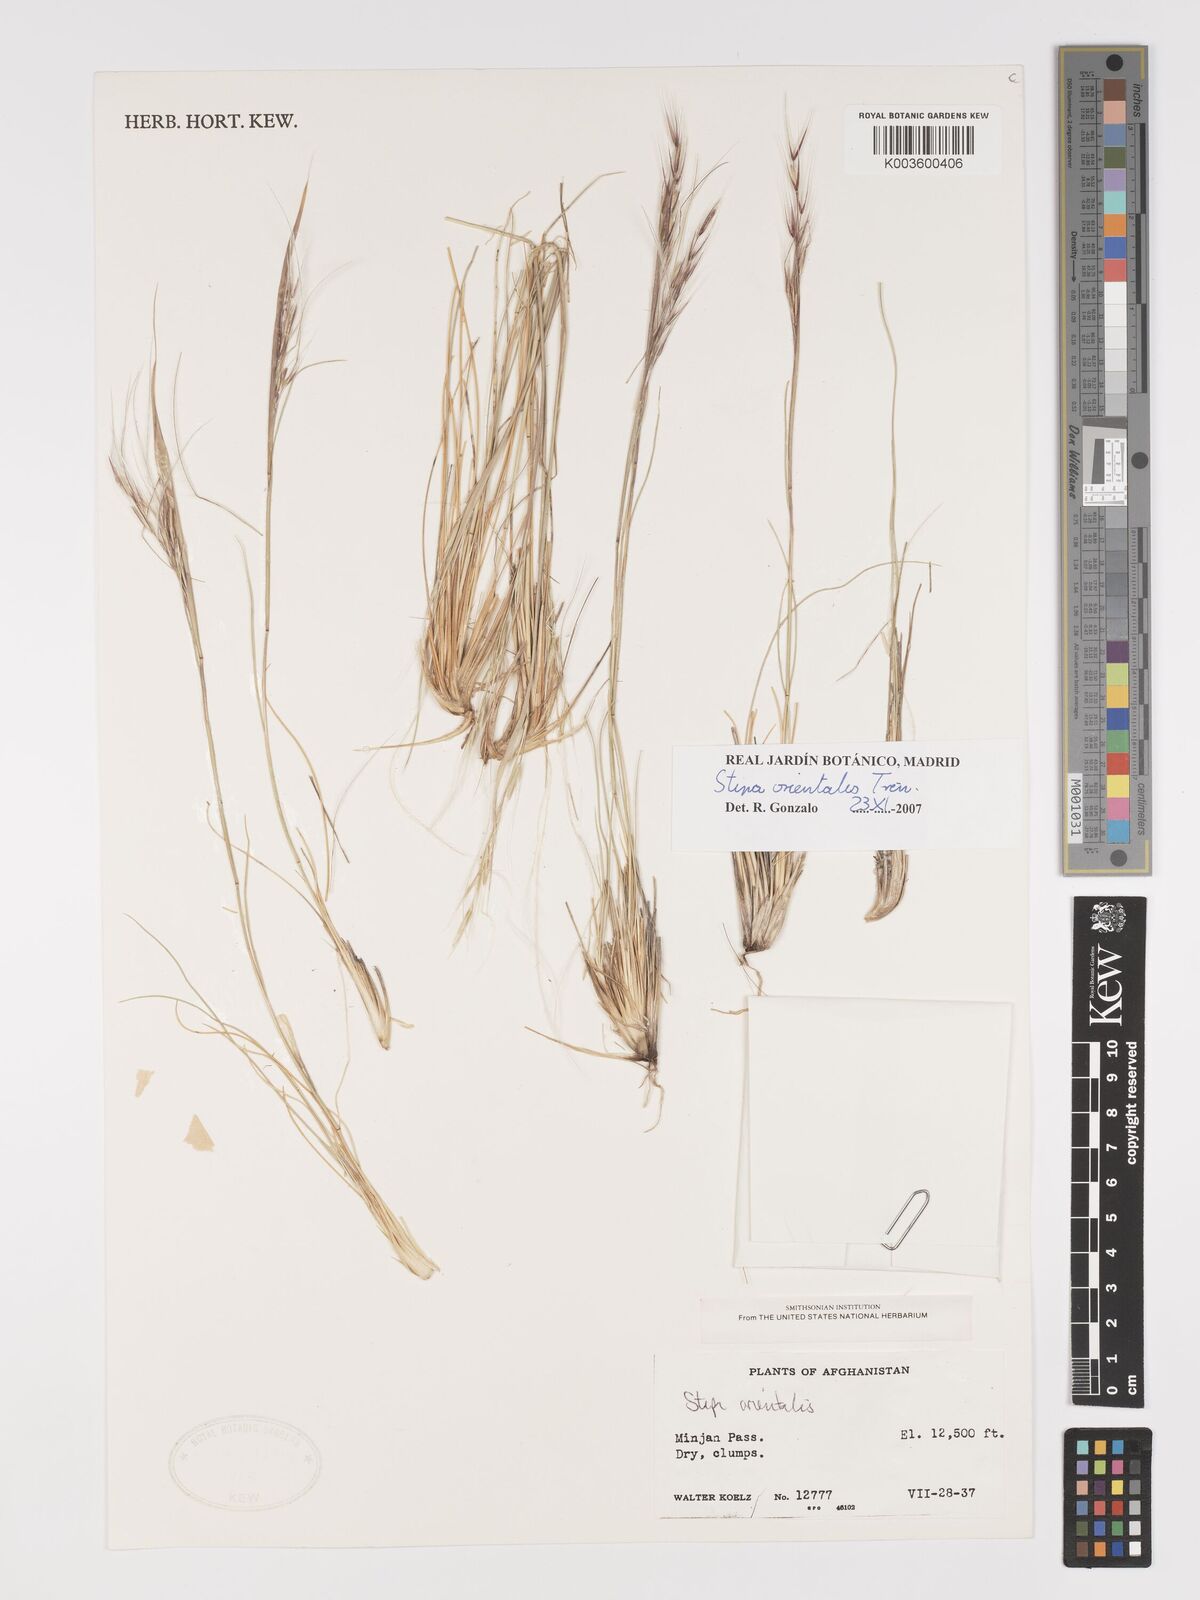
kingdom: Plantae
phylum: Tracheophyta
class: Liliopsida
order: Poales
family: Poaceae
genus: Stipa
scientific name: Stipa orientalis
